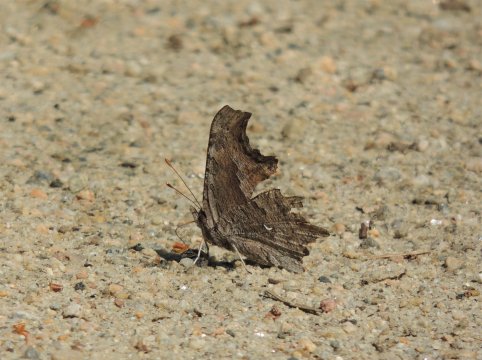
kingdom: Animalia
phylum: Arthropoda
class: Insecta
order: Lepidoptera
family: Nymphalidae
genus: Polygonia
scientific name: Polygonia gracilis
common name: Hoary Comma
